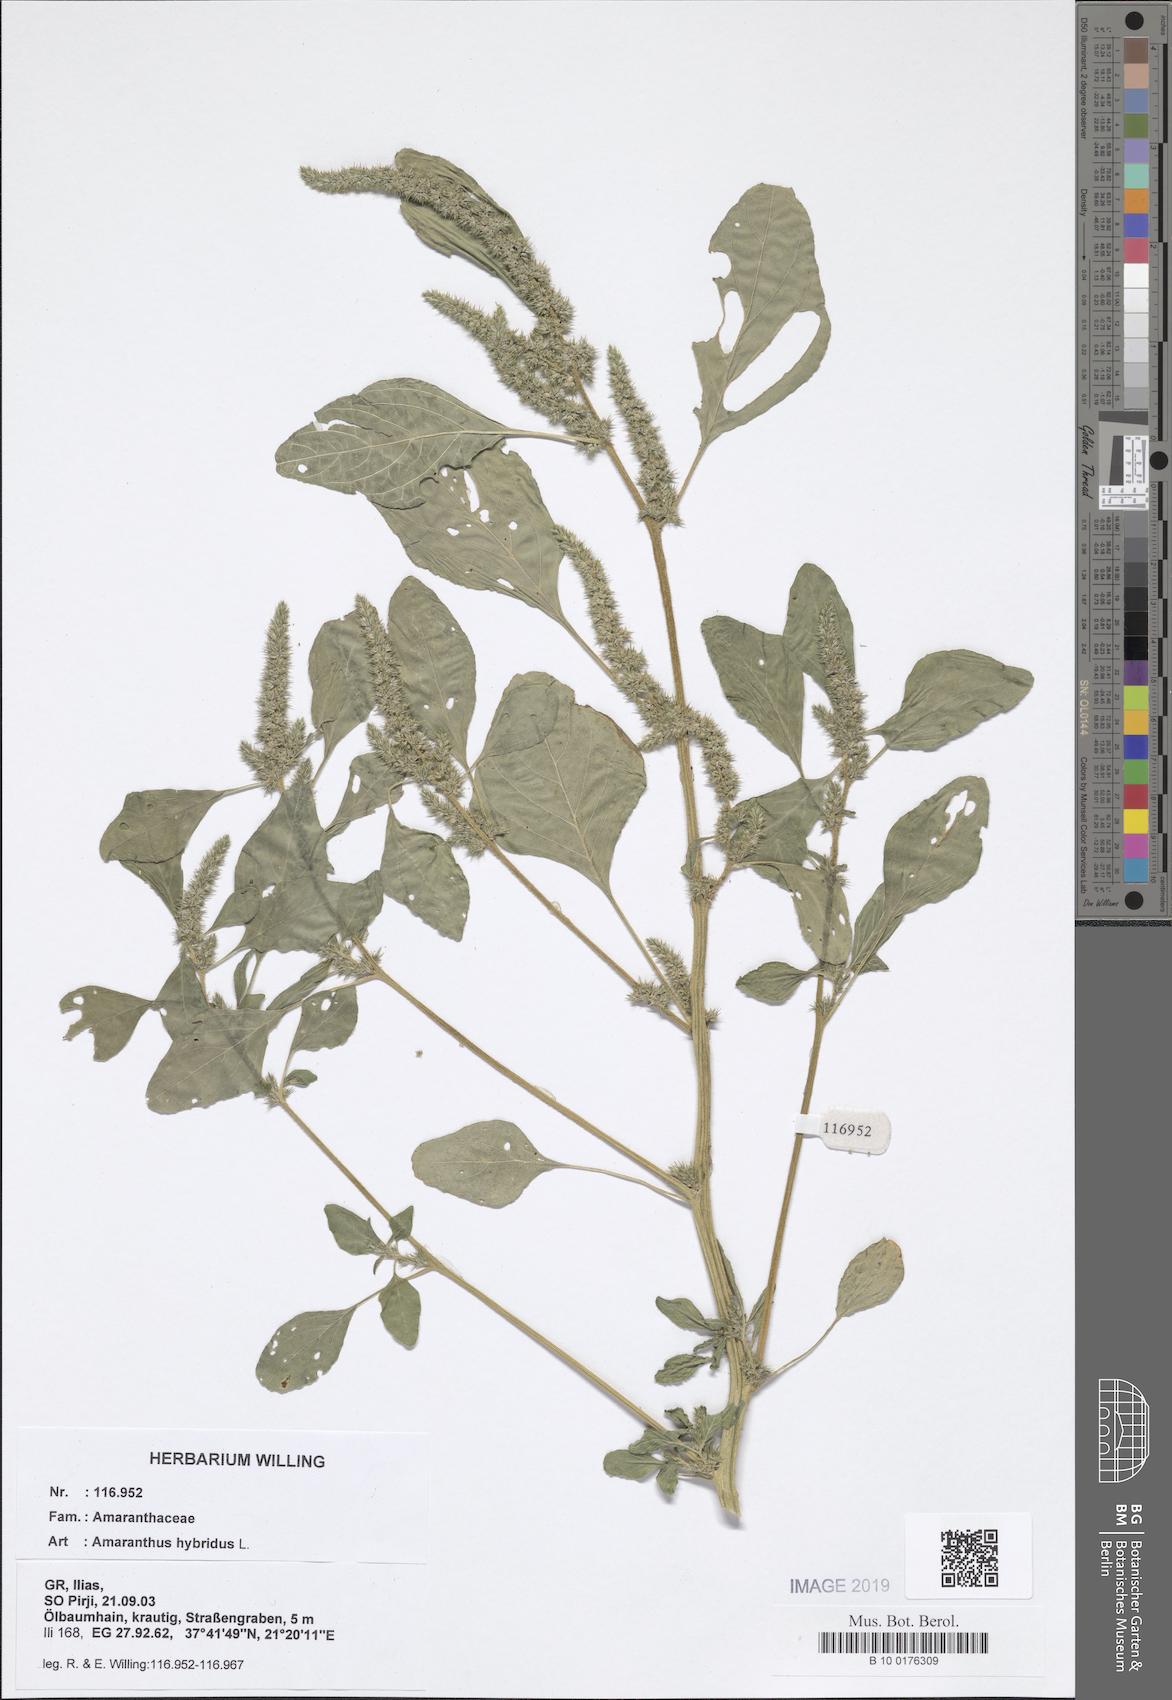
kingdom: Plantae
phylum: Tracheophyta
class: Magnoliopsida
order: Caryophyllales
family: Amaranthaceae
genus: Amaranthus
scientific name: Amaranthus hybridus
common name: Green amaranth
